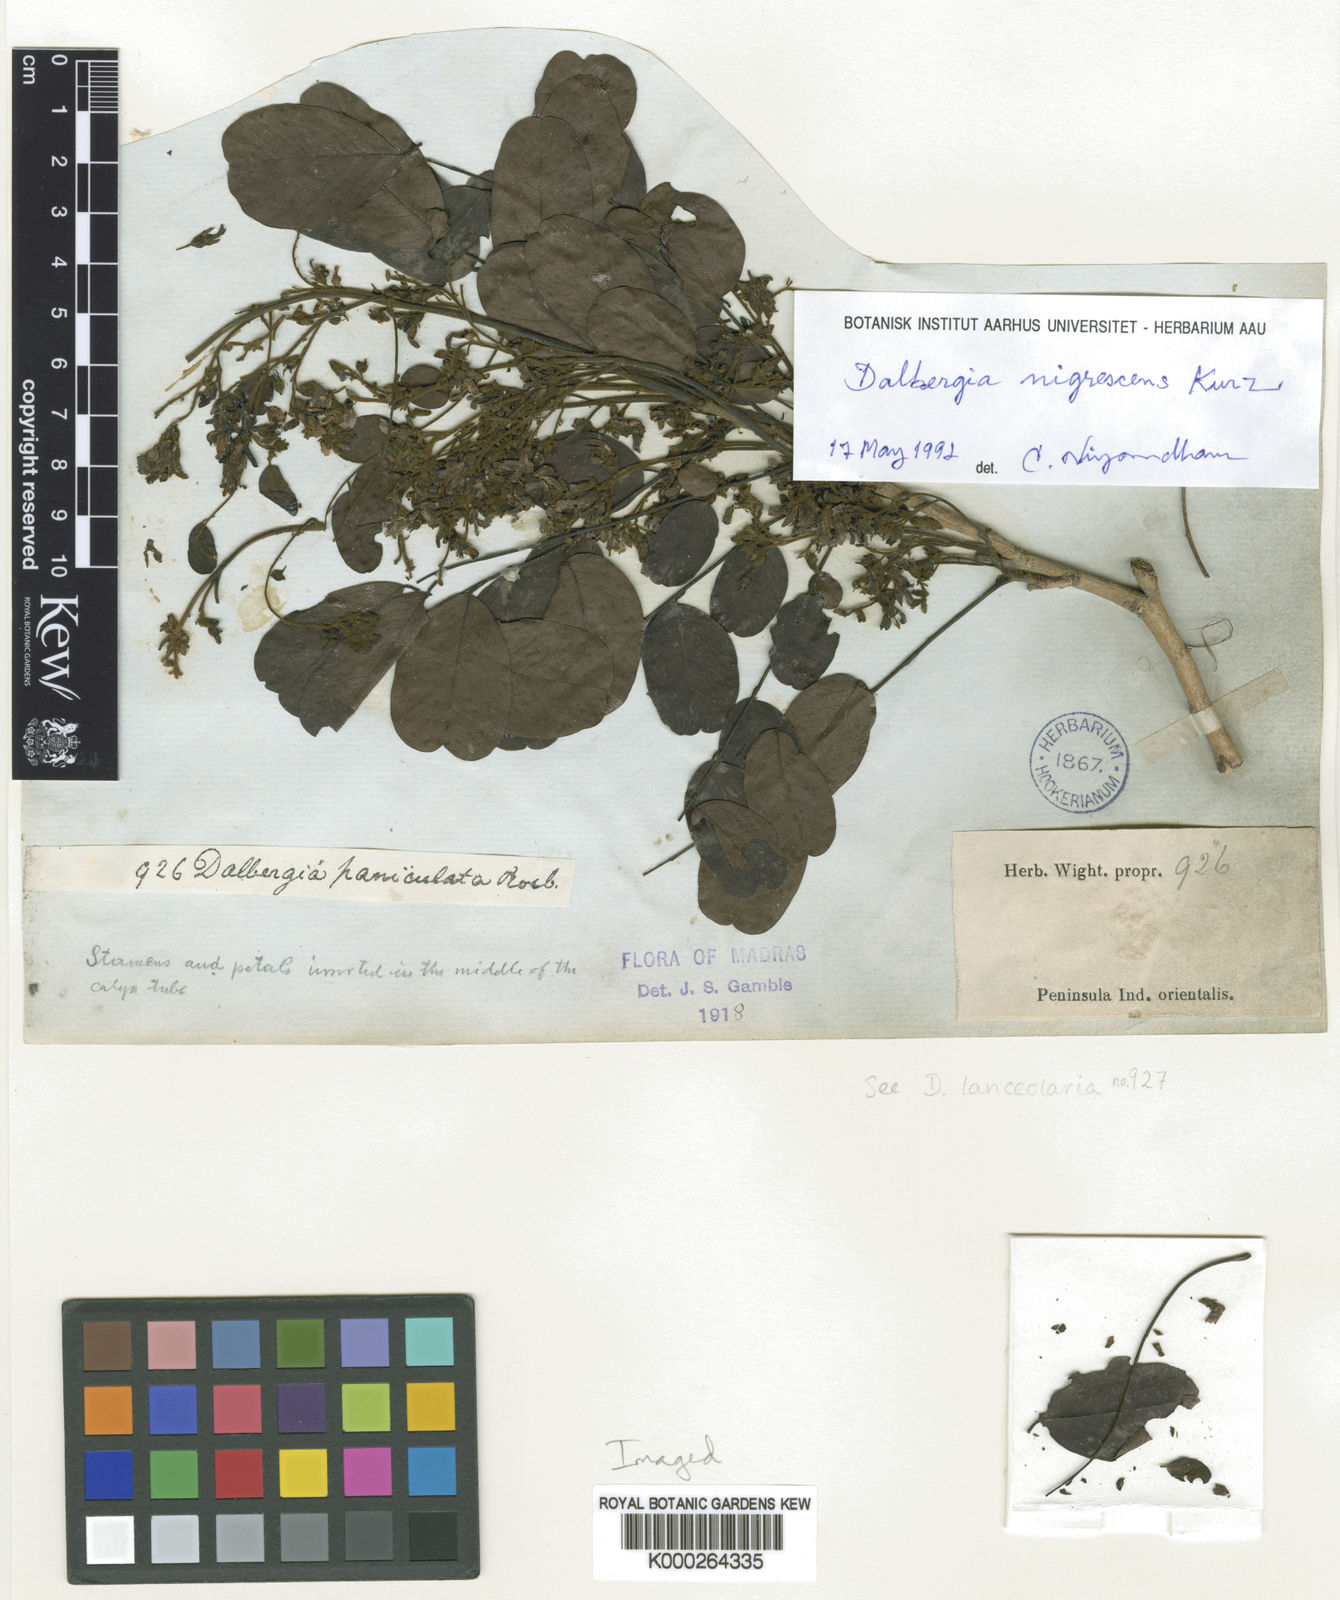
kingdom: Plantae
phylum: Tracheophyta
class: Magnoliopsida
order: Fabales
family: Fabaceae
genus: Dalbergia
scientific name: Dalbergia nigrescens
